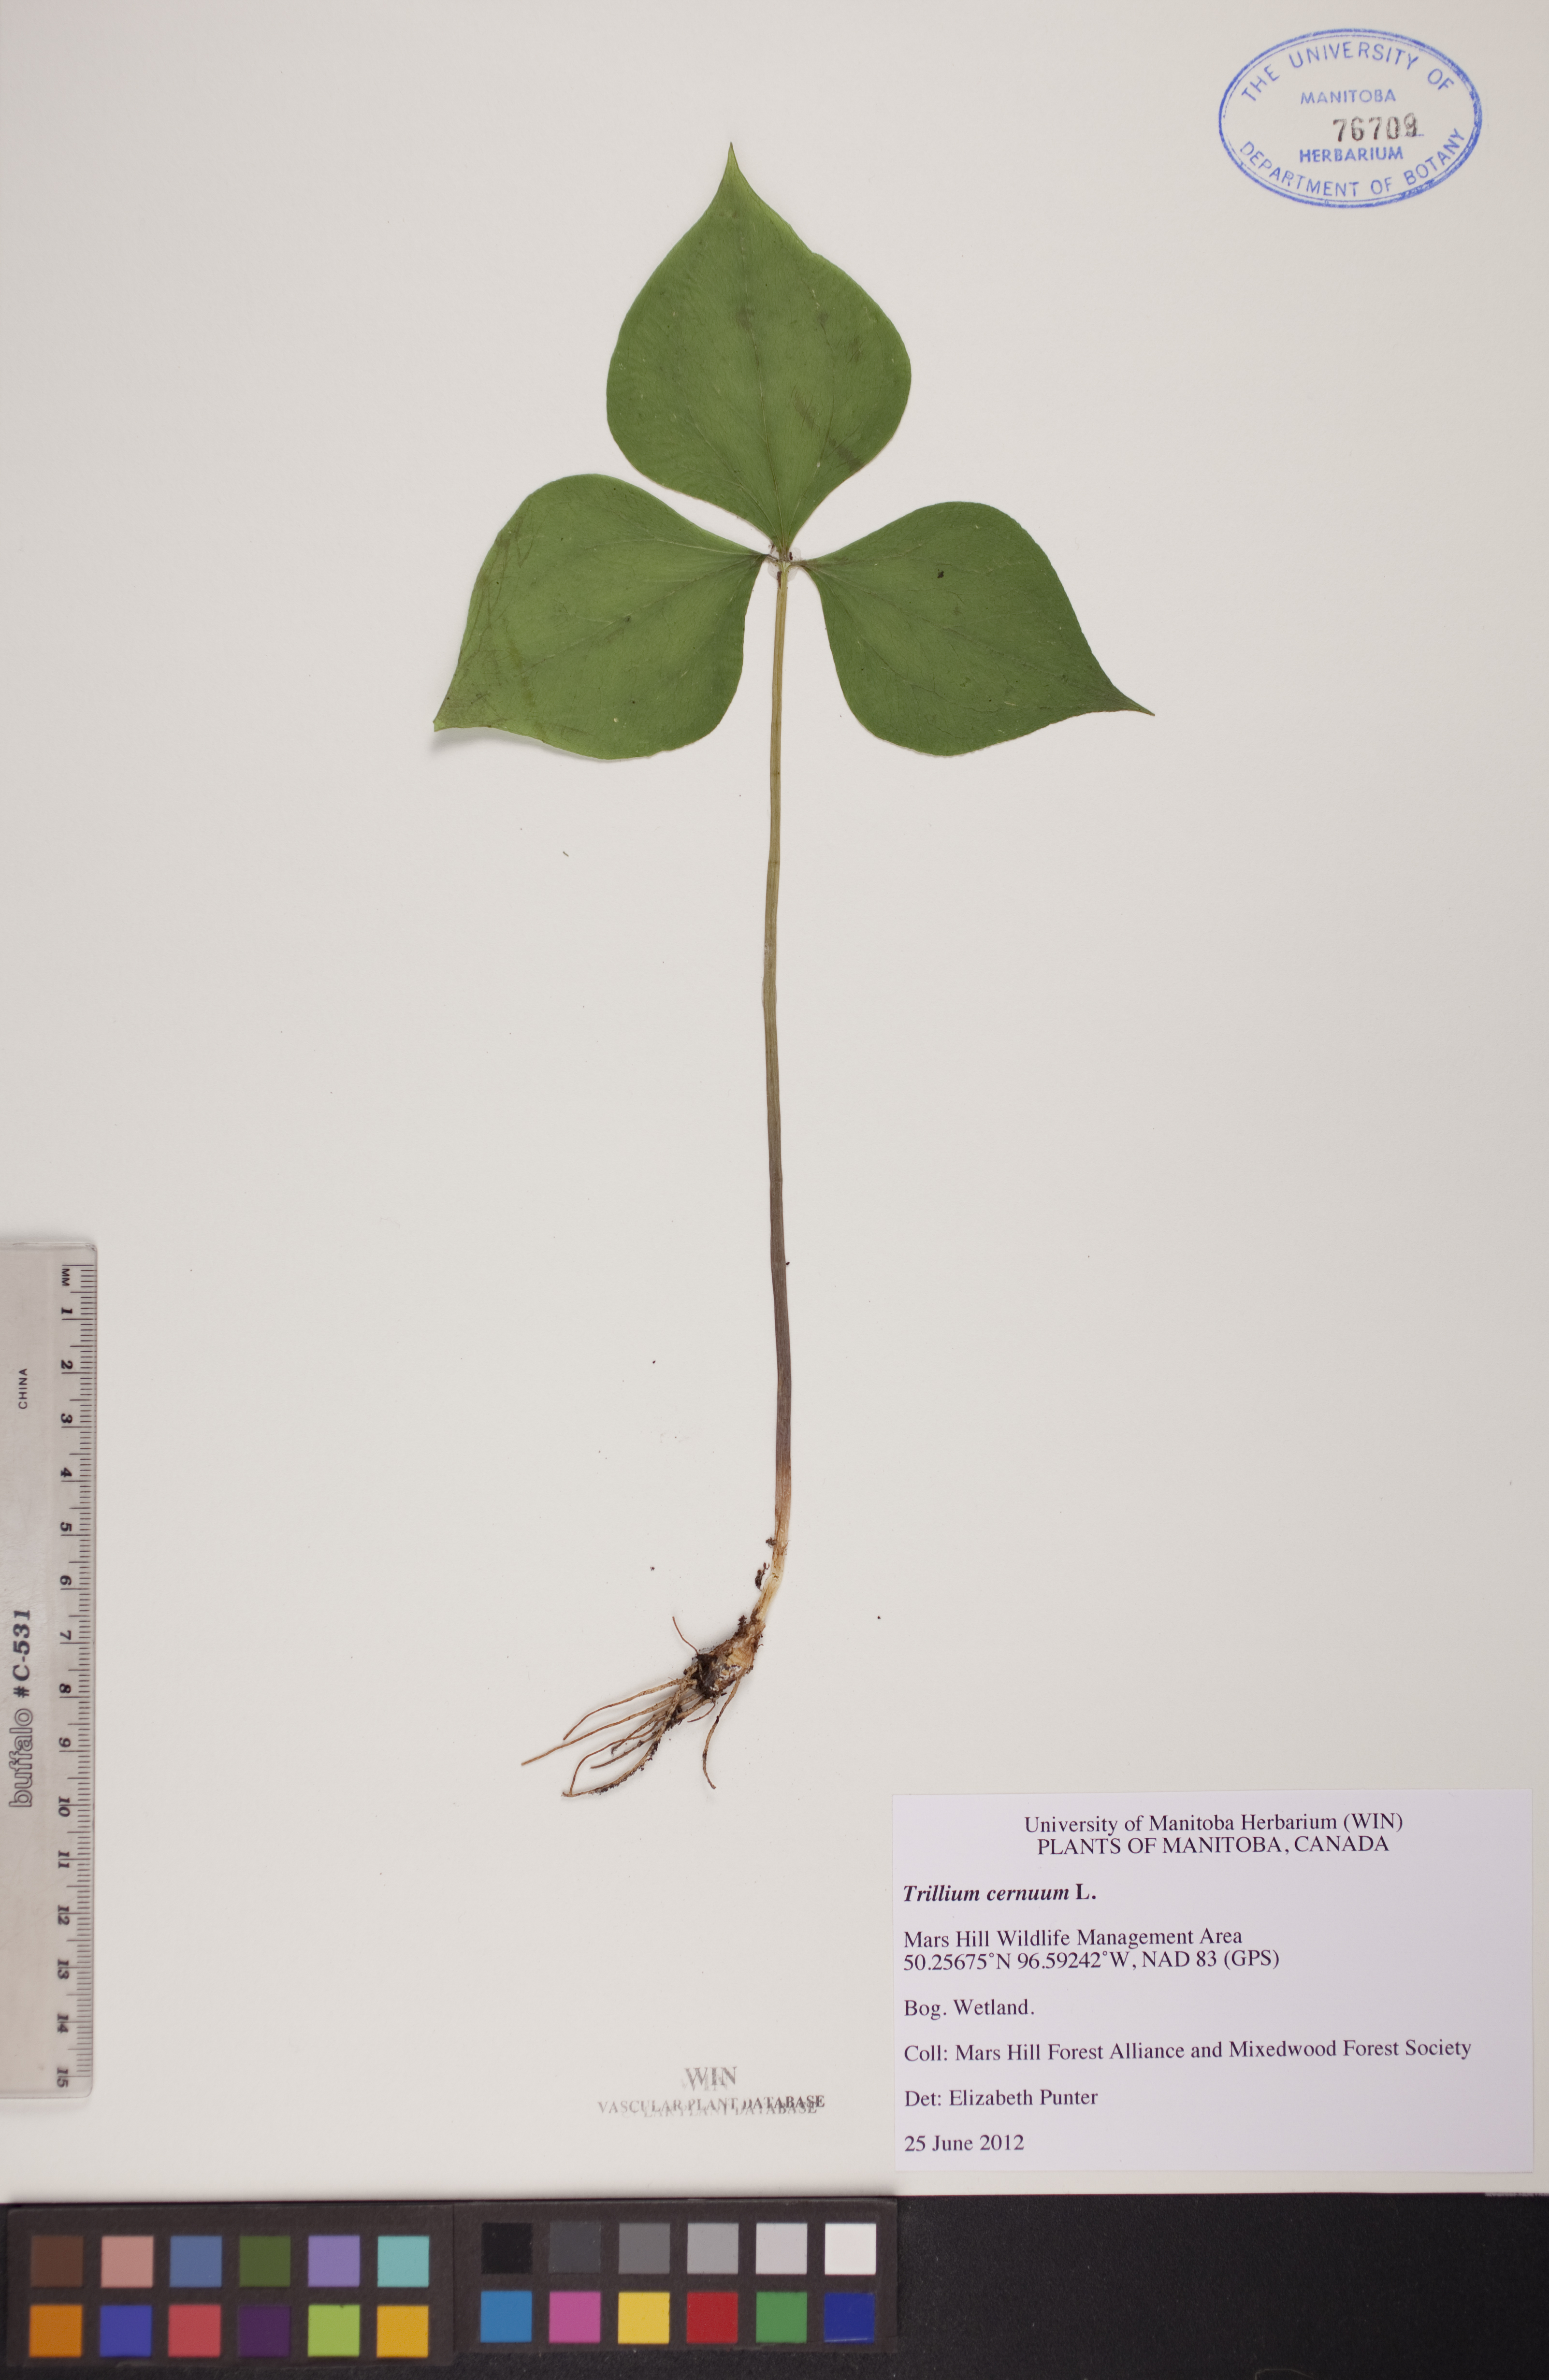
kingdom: Plantae
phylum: Tracheophyta
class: Liliopsida
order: Liliales
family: Melanthiaceae
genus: Trillium
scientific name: Trillium cernuum
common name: Nodding trillium
